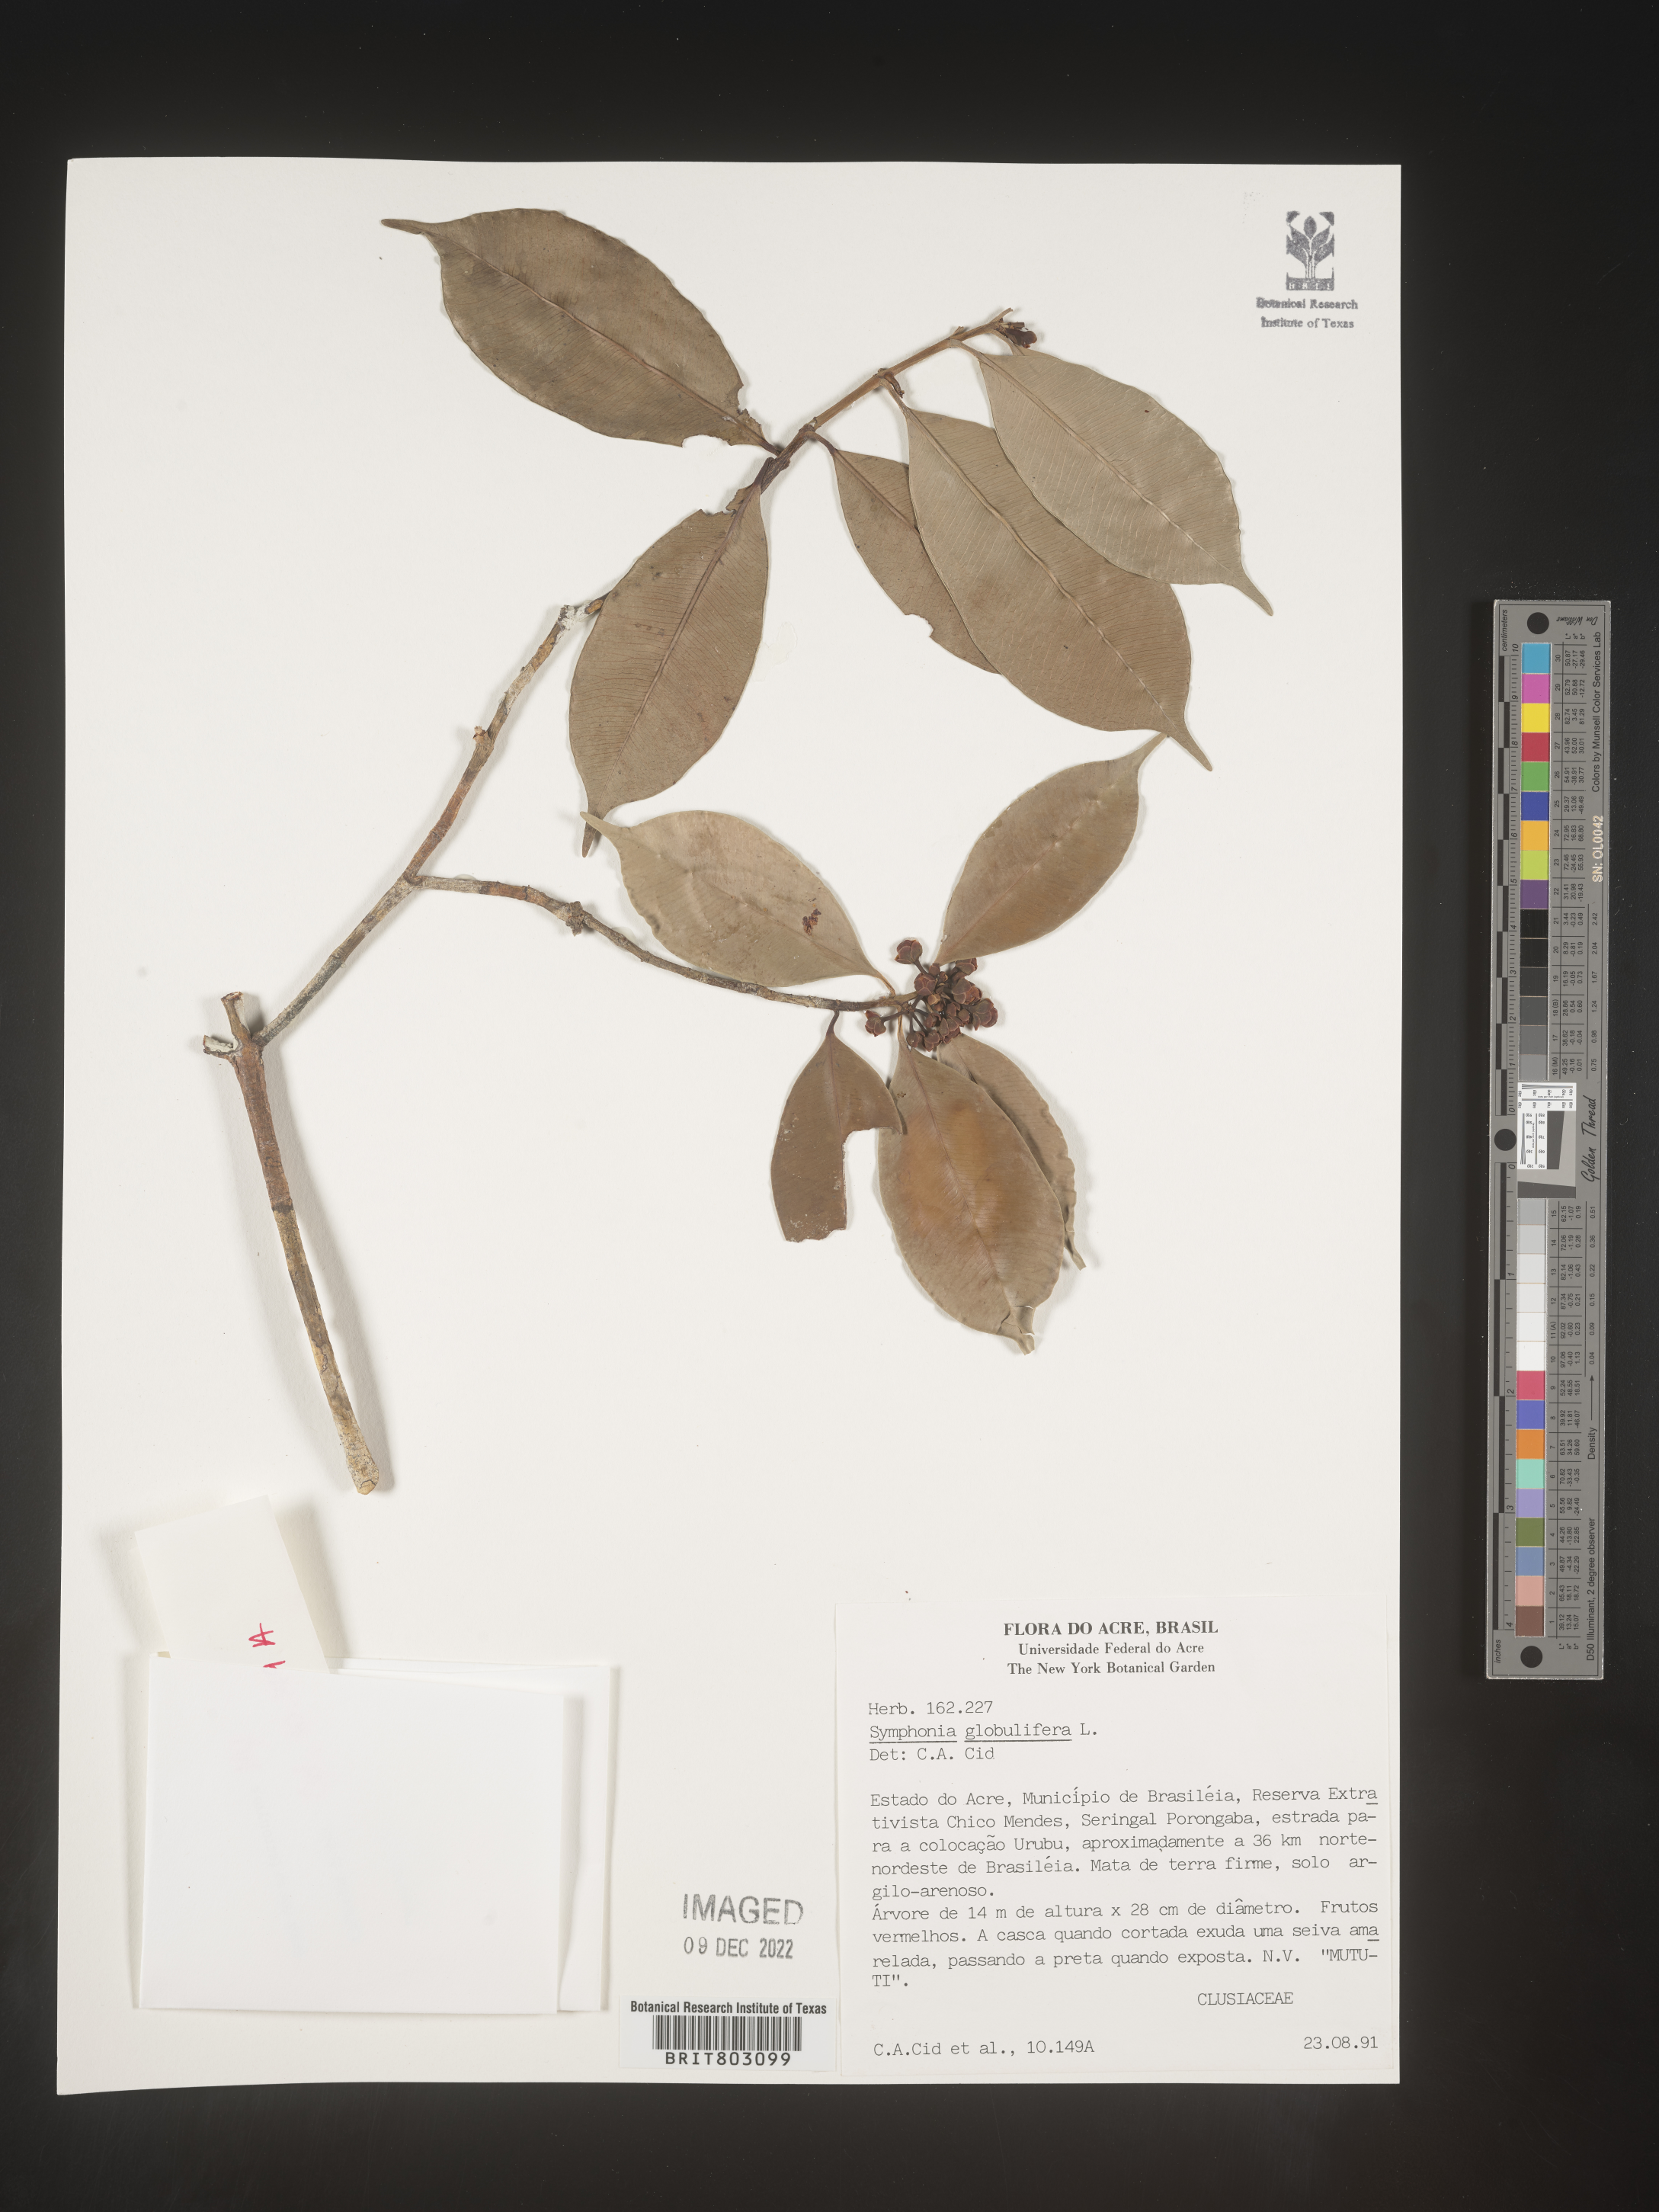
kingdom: Plantae
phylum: Tracheophyta
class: Magnoliopsida
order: Malpighiales
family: Clusiaceae
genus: Symphonia
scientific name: Symphonia
